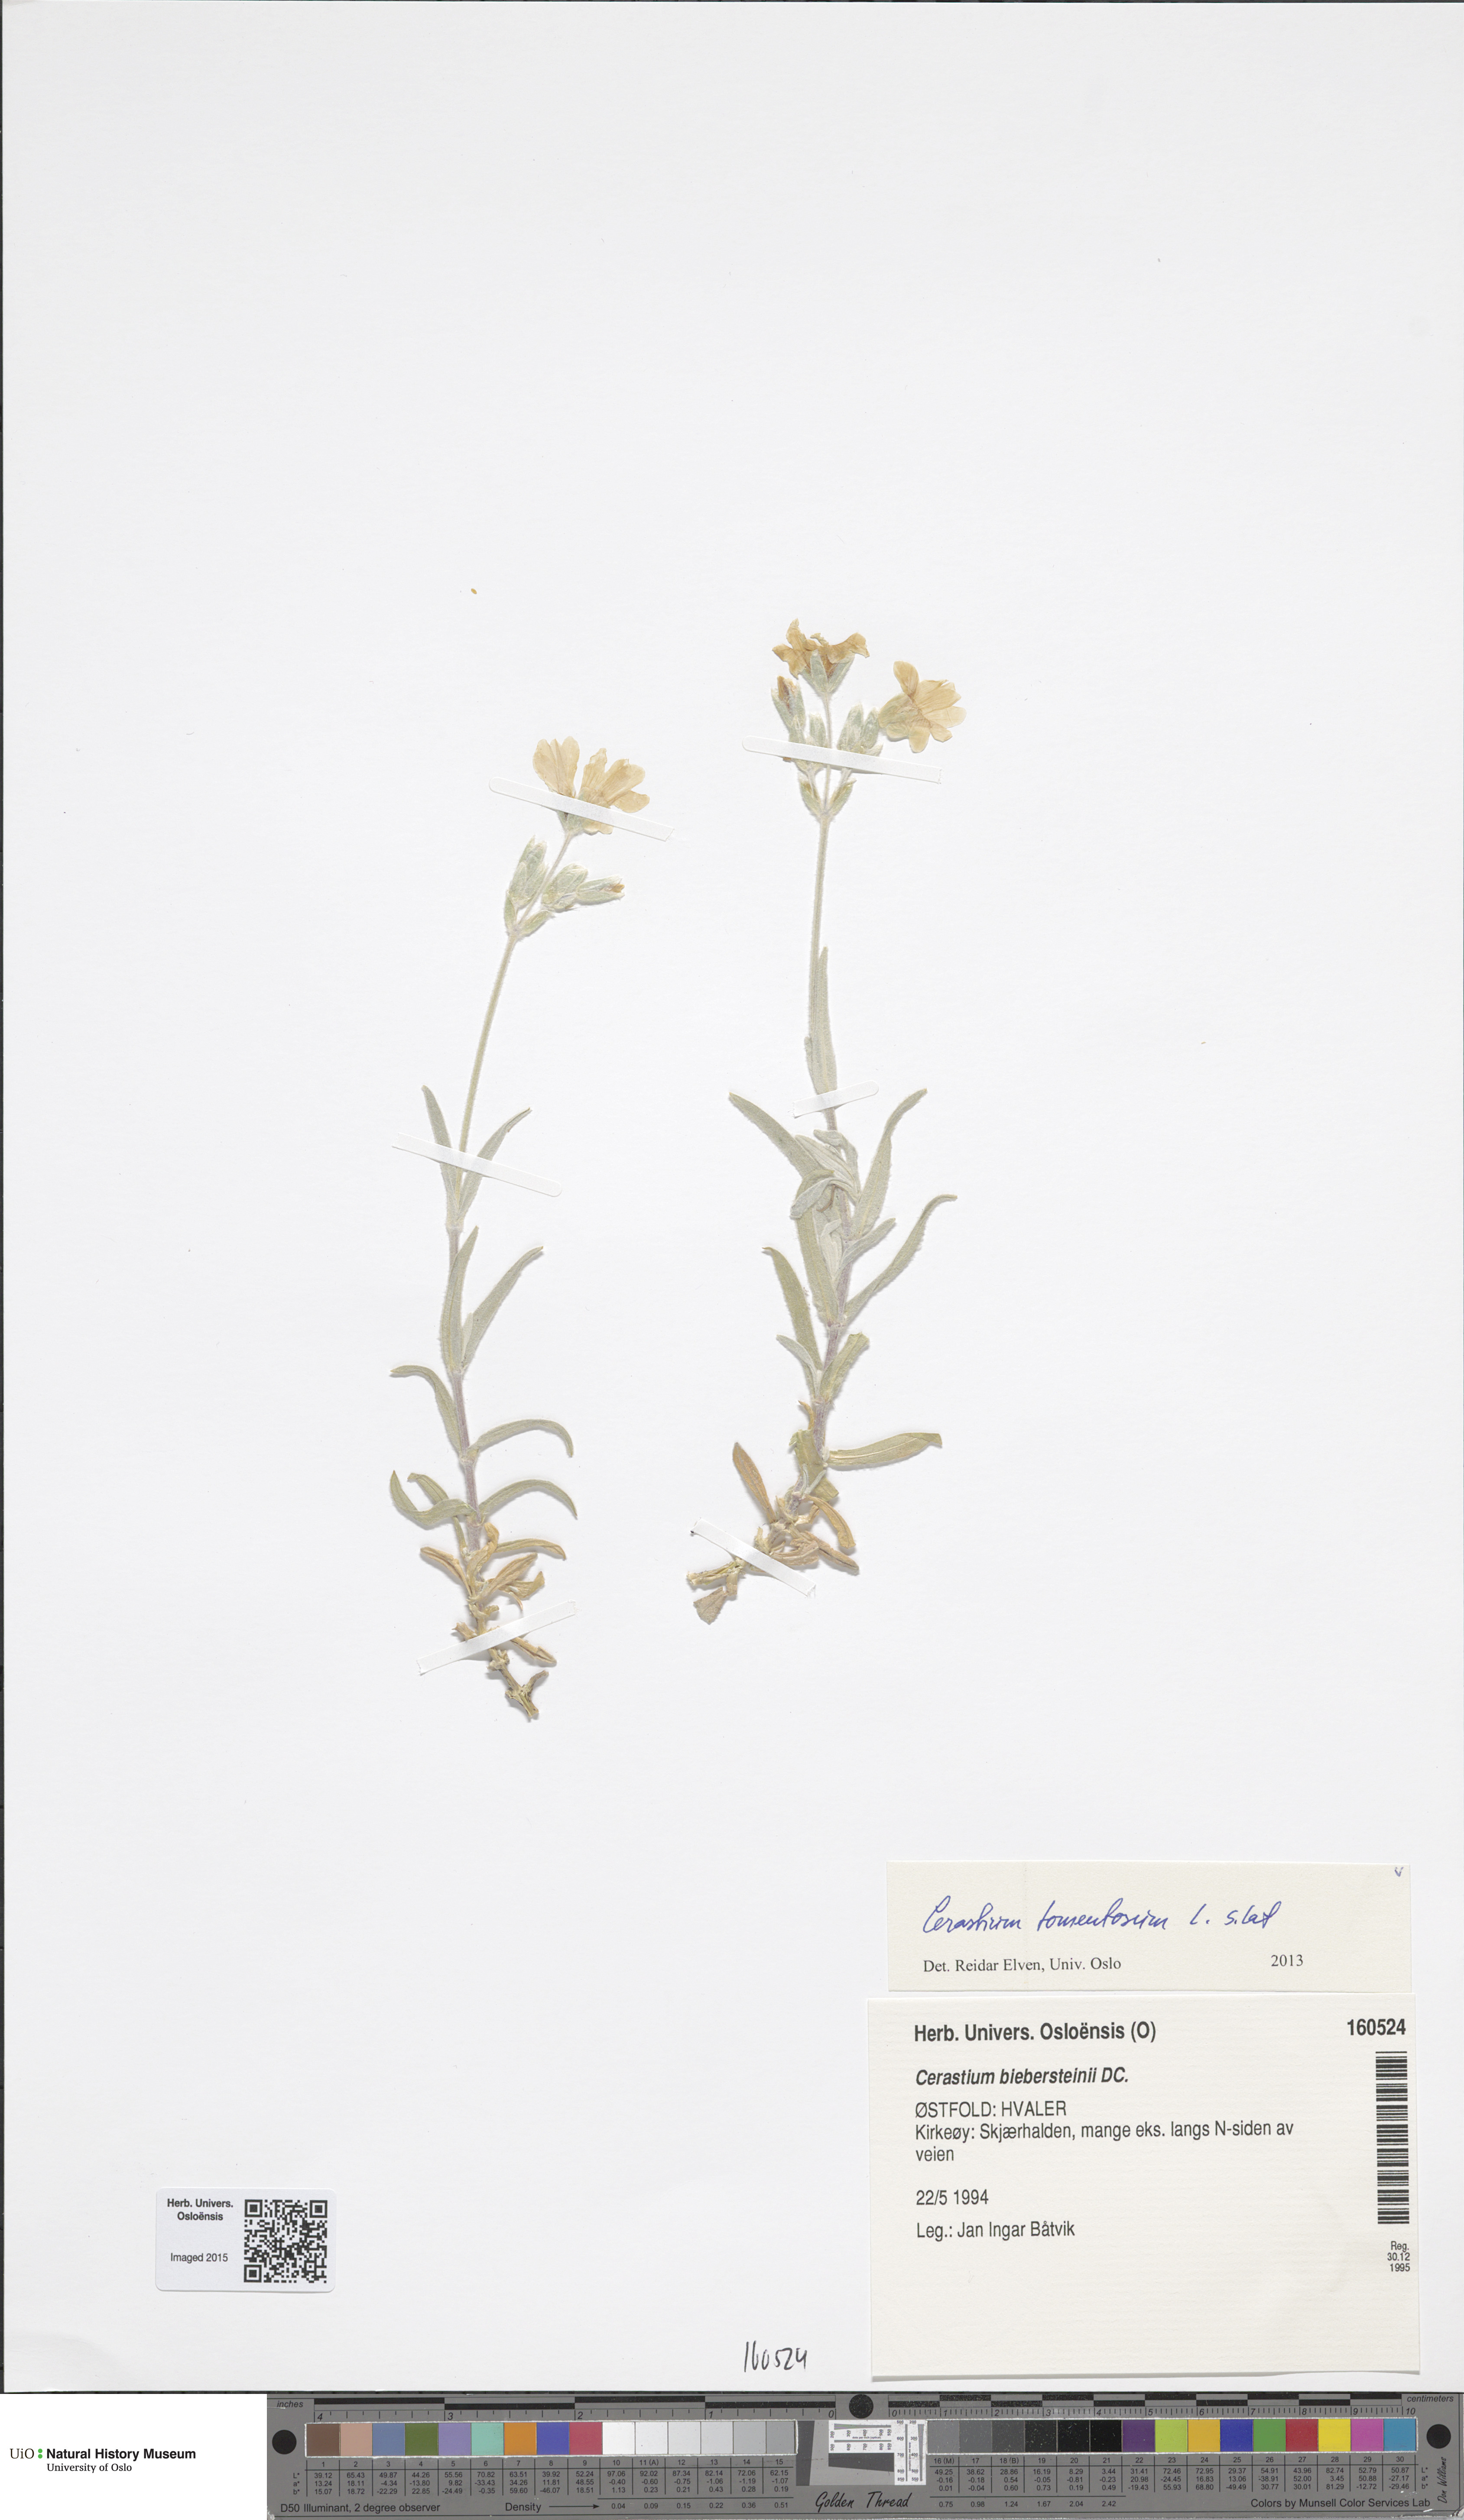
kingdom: Plantae
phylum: Tracheophyta
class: Magnoliopsida
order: Caryophyllales
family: Caryophyllaceae
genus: Cerastium
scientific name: Cerastium tomentosum
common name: Snow-in-summer
